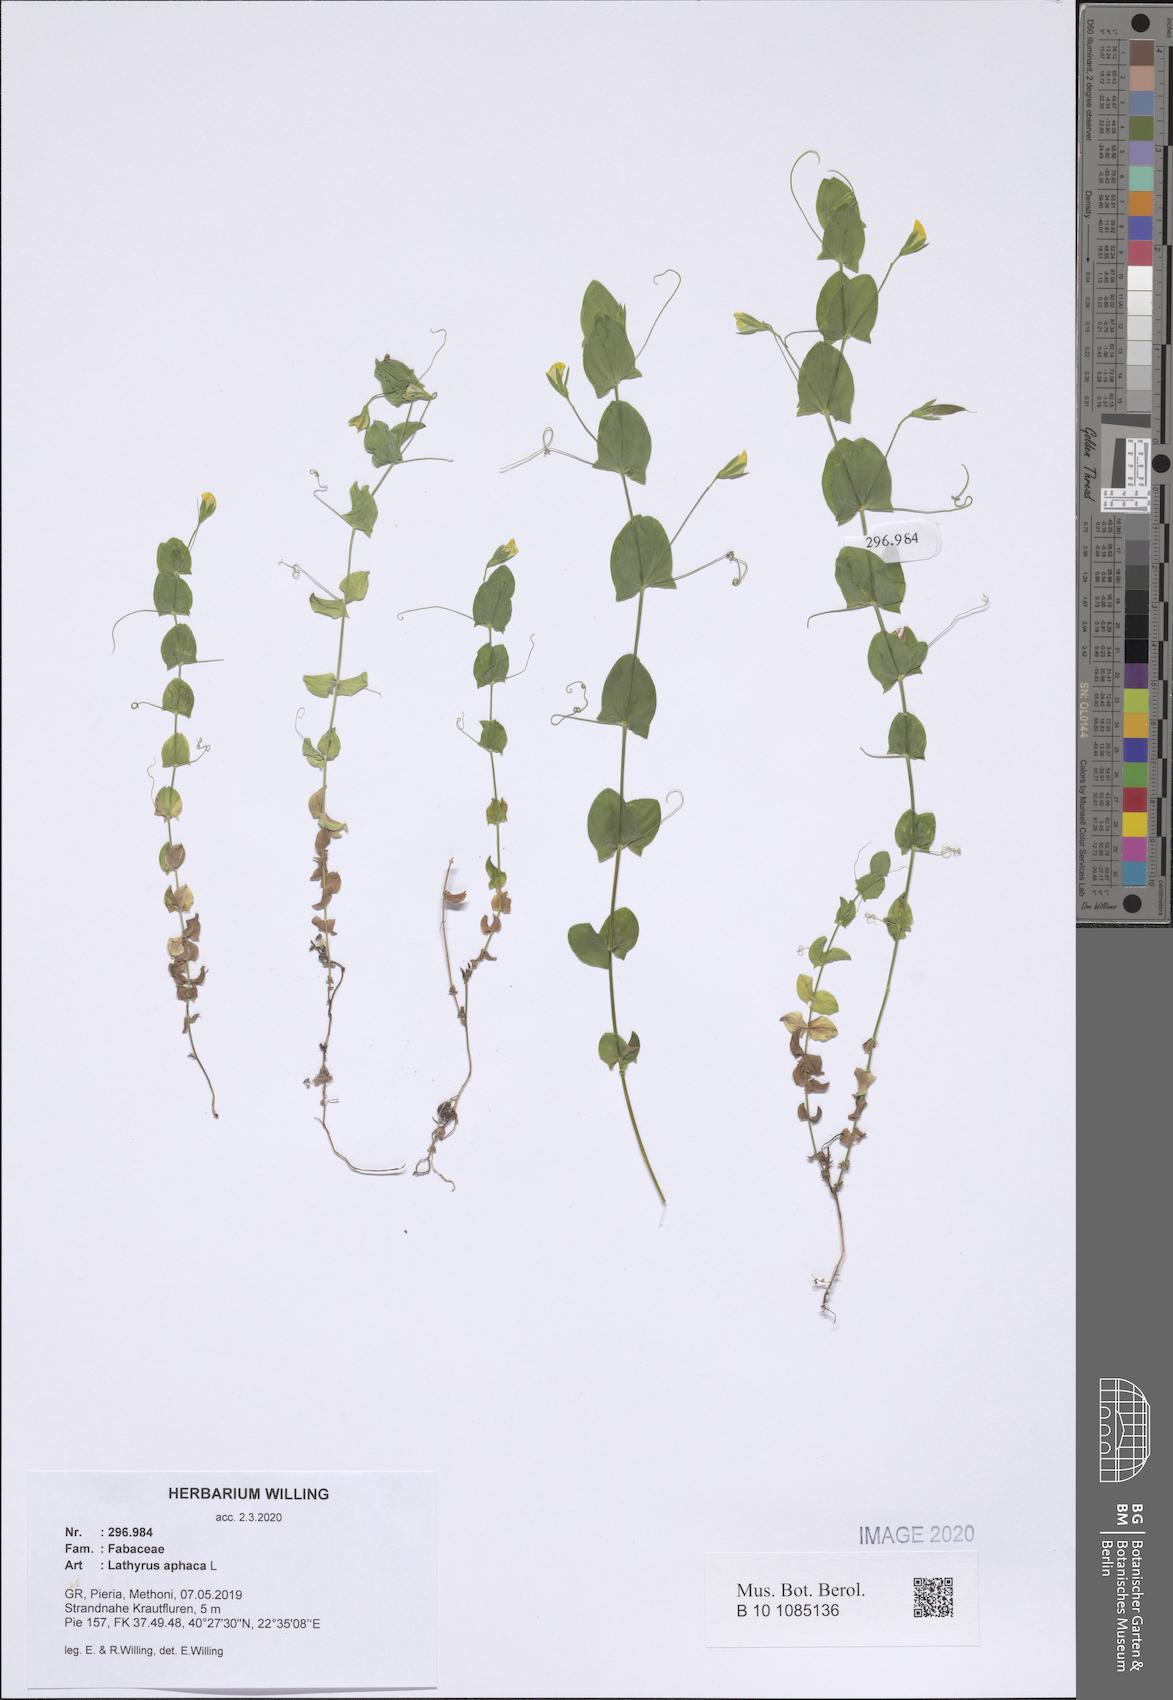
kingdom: Plantae
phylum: Tracheophyta
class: Magnoliopsida
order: Fabales
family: Fabaceae
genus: Lathyrus
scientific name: Lathyrus aphaca
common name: Yellow vetchling
